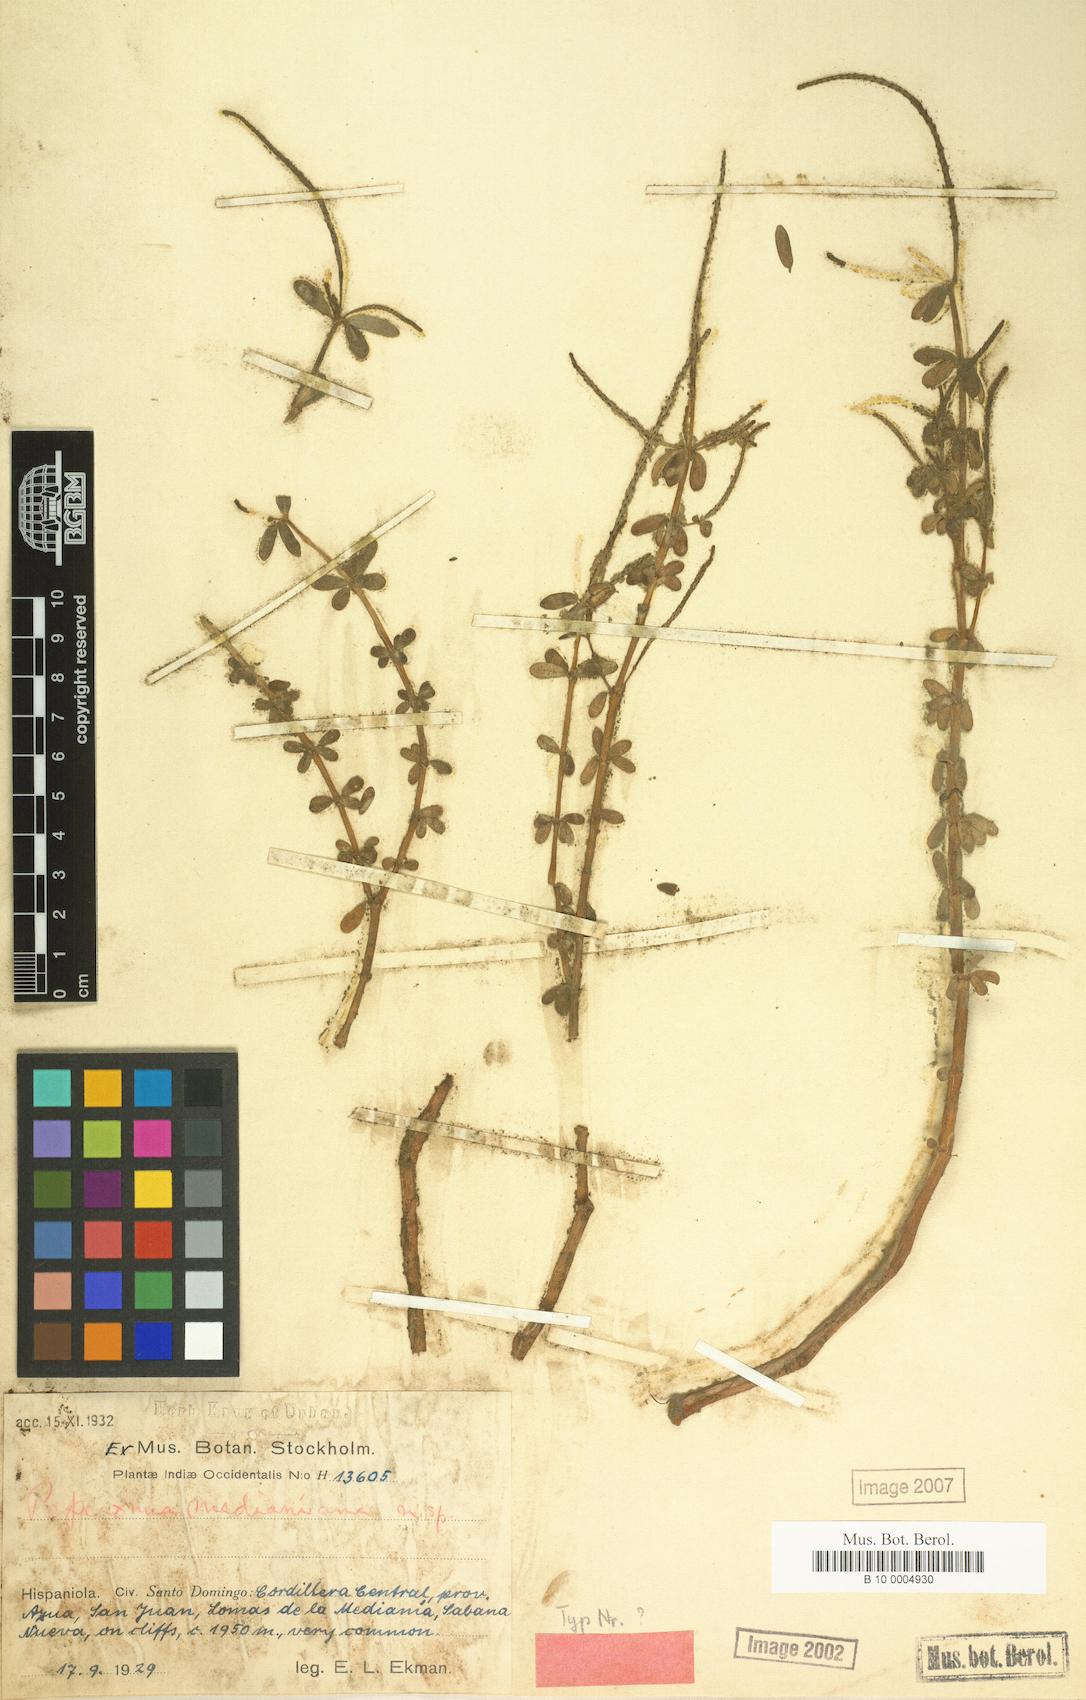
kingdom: Plantae
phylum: Tracheophyta
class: Magnoliopsida
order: Piperales
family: Piperaceae
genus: Peperomia
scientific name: Peperomia galioides
